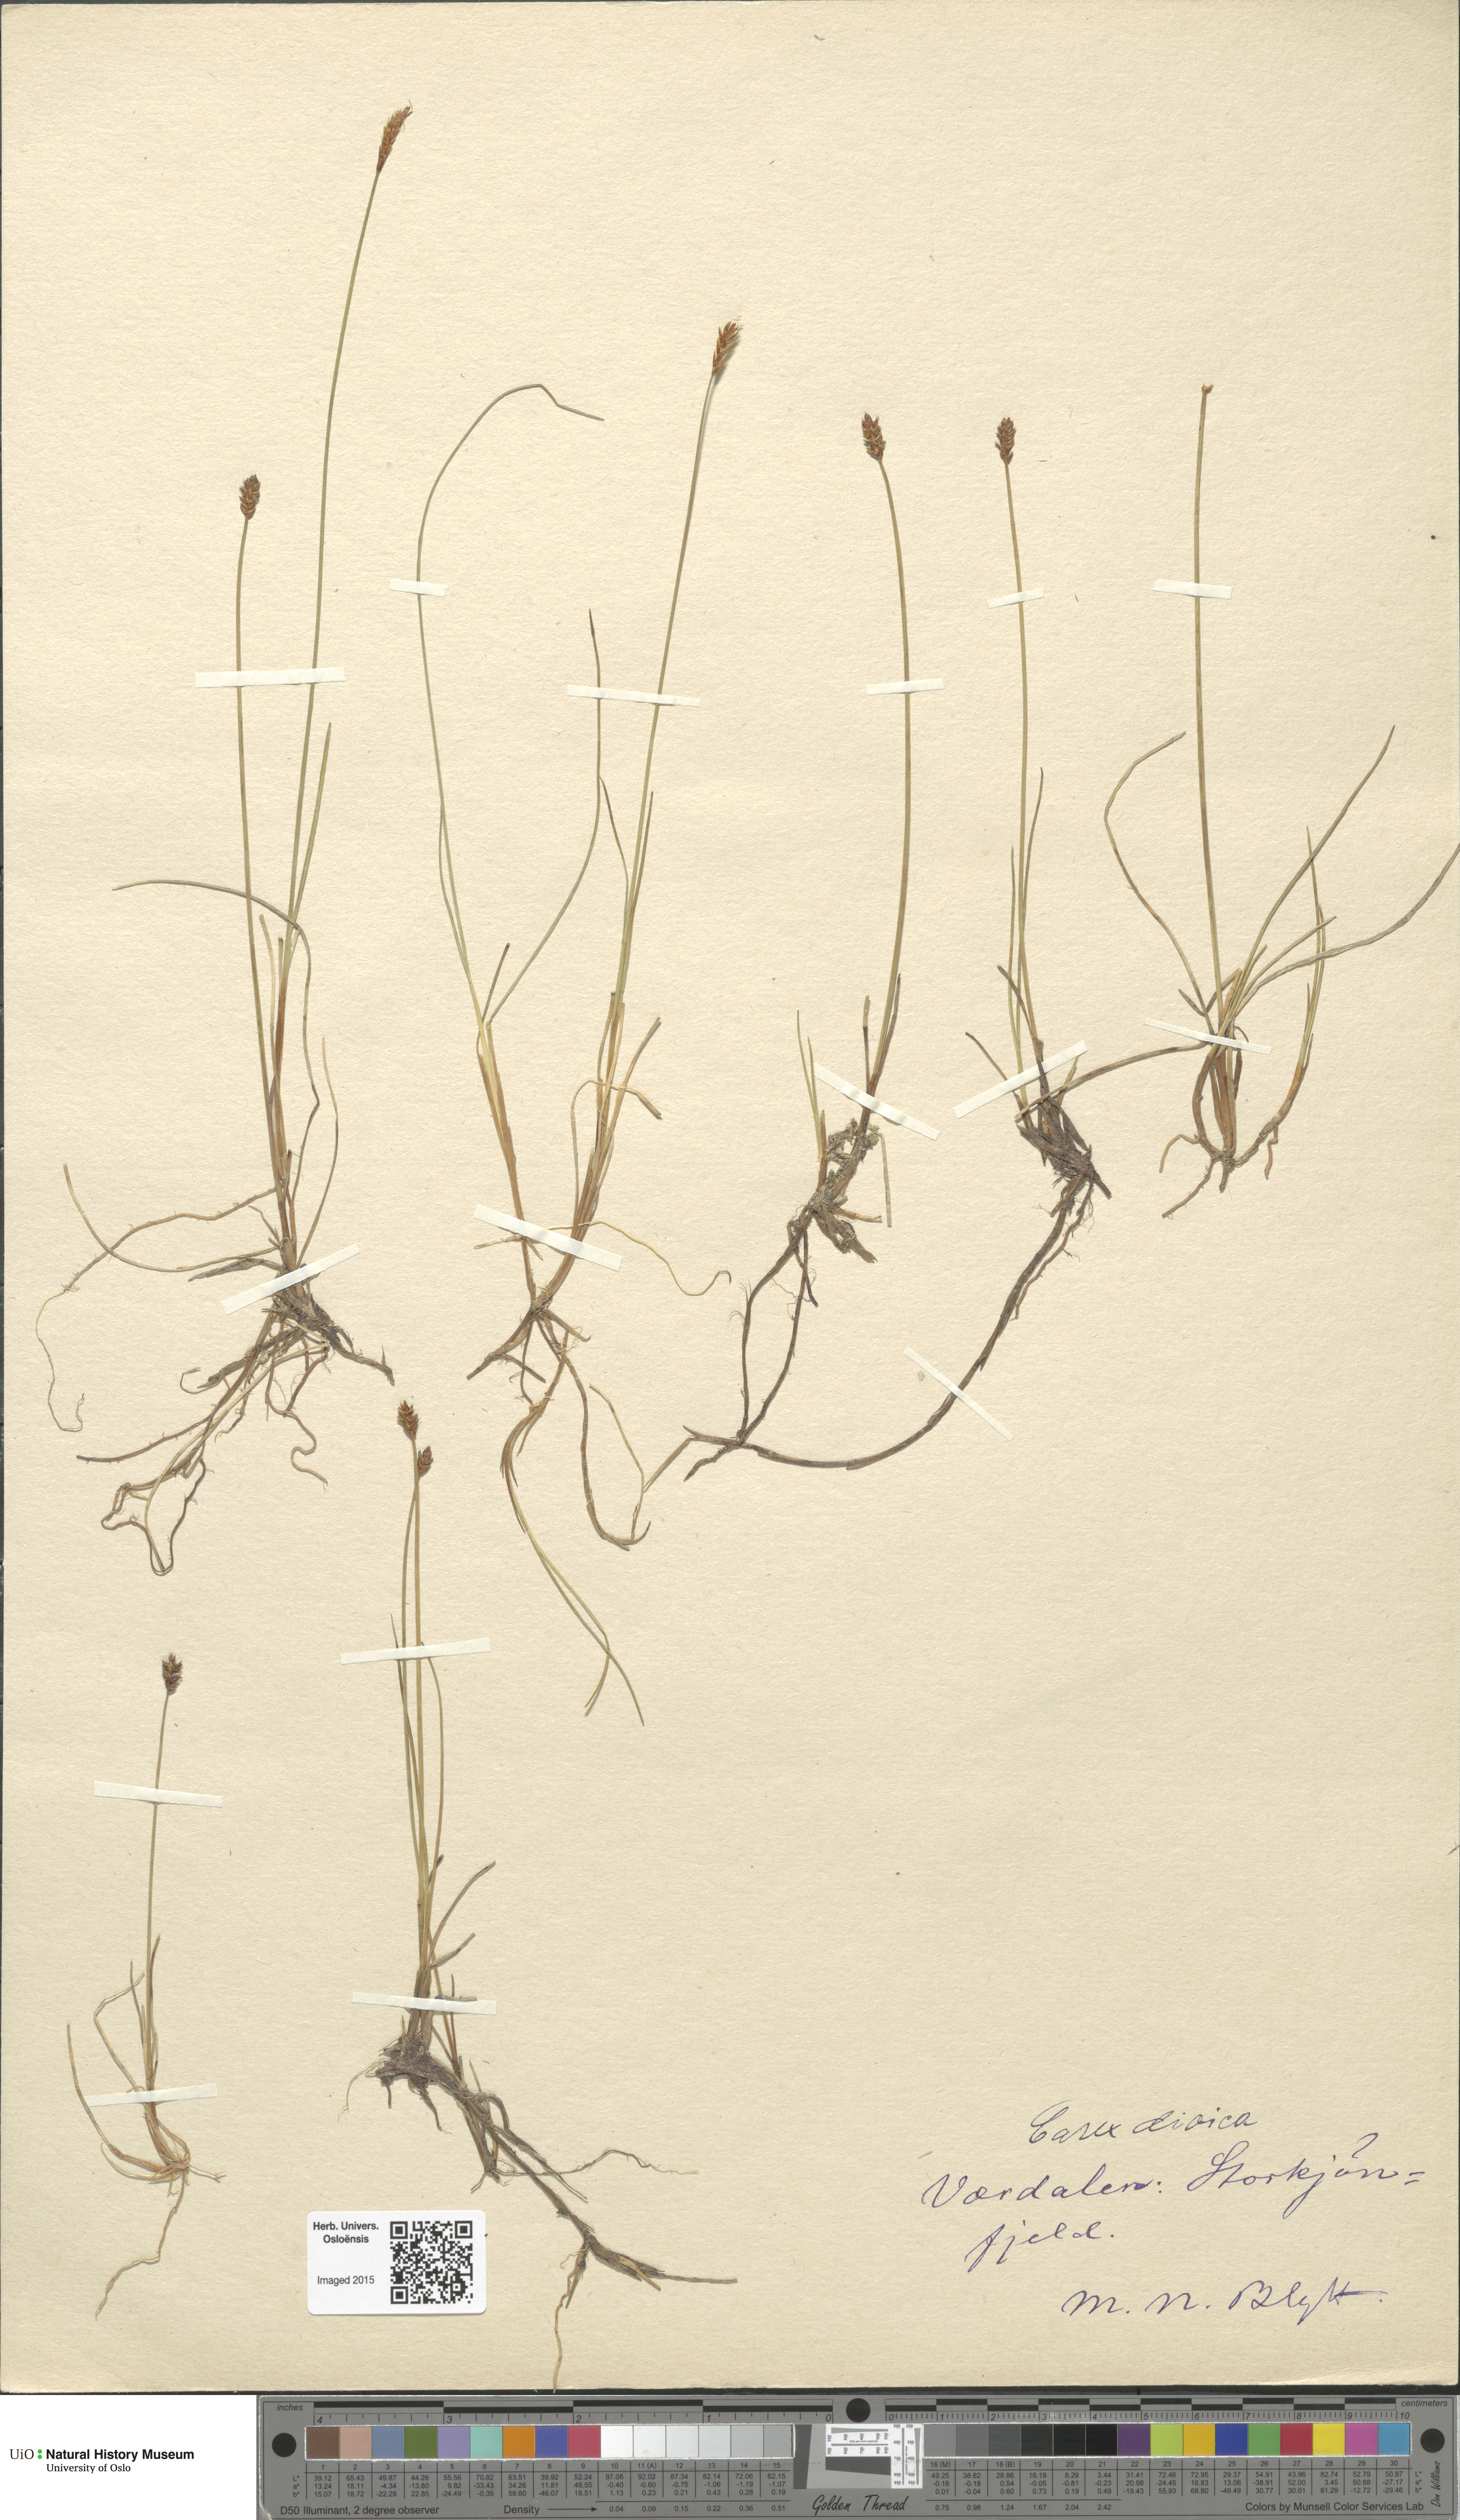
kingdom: Plantae
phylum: Tracheophyta
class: Liliopsida
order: Poales
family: Cyperaceae
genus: Carex
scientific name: Carex dioica
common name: Dioecious sedge
